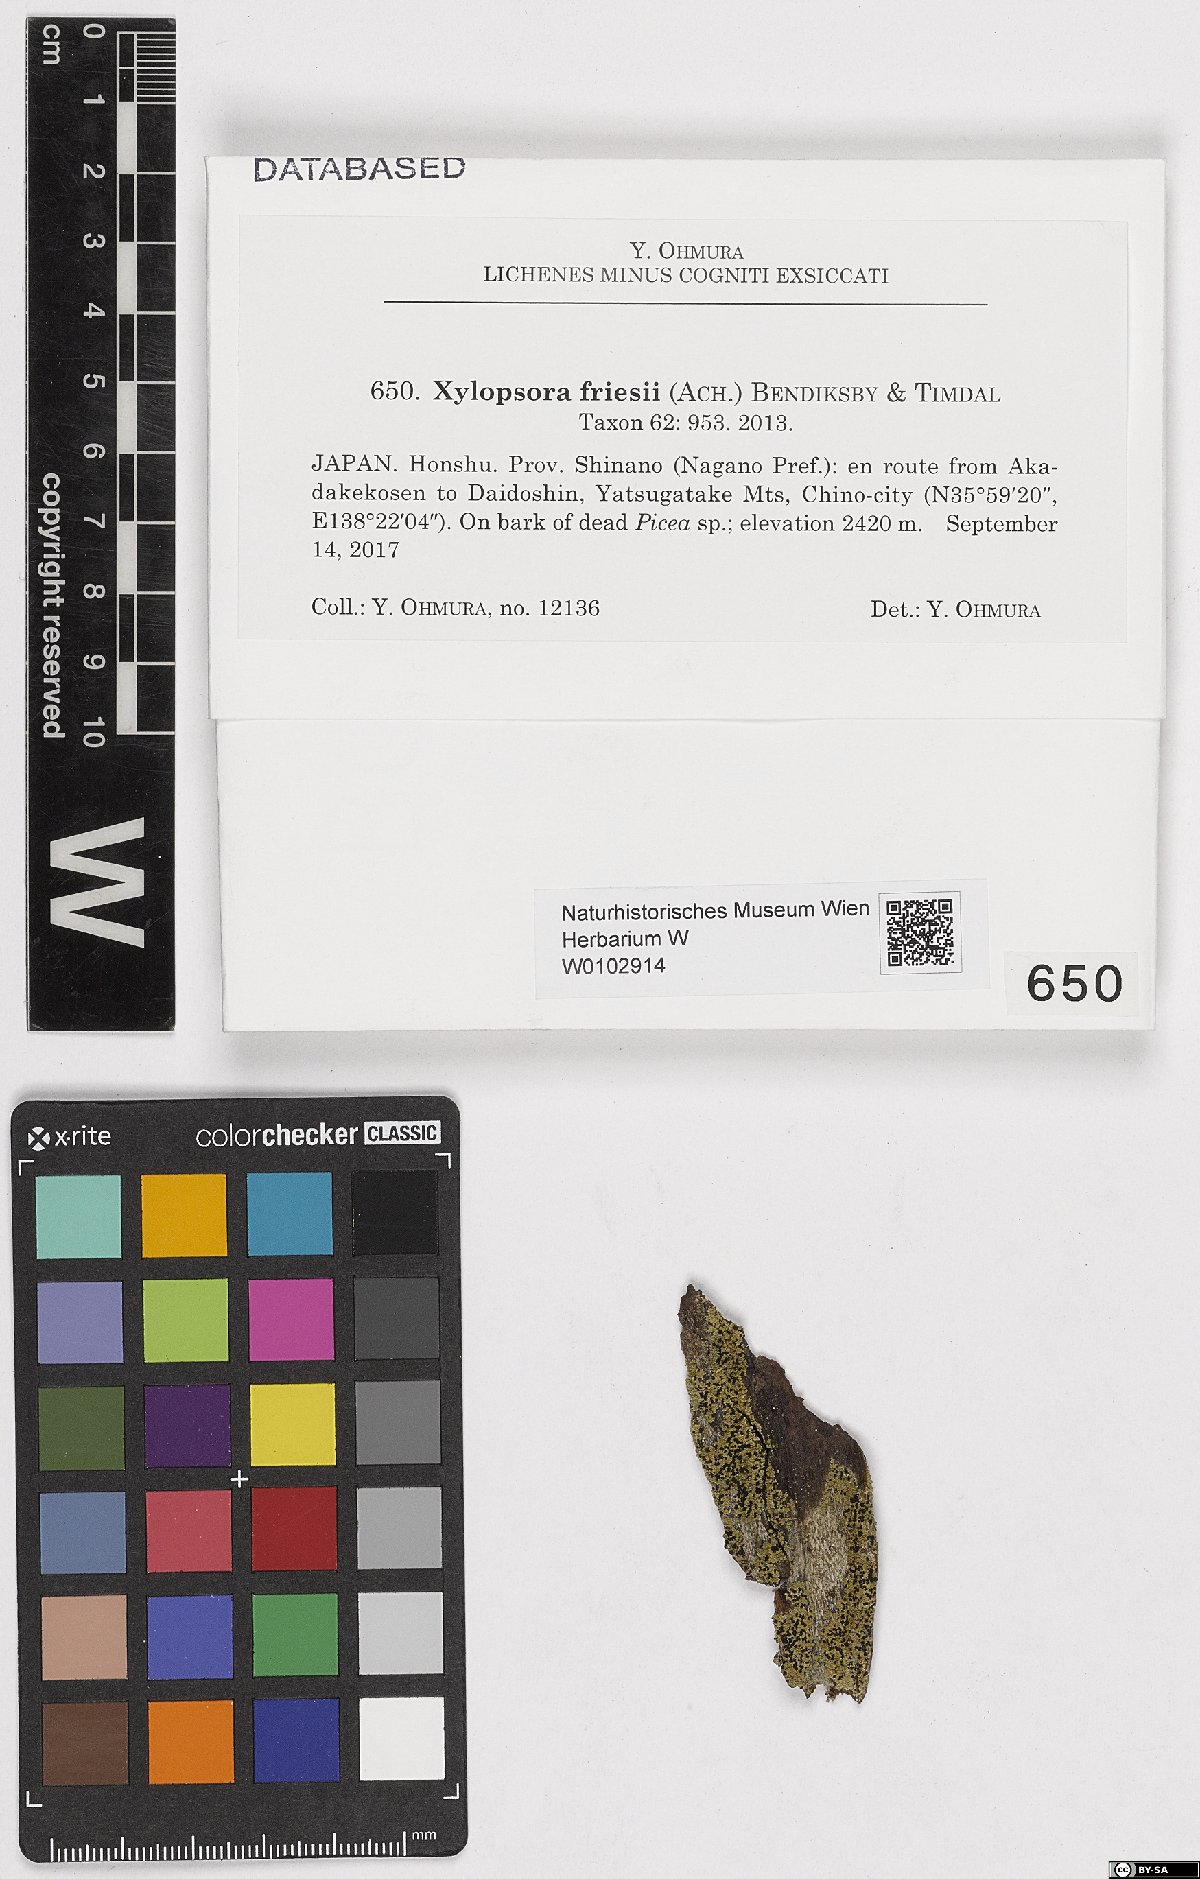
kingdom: Fungi
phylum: Ascomycota
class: Lecanoromycetes
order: Umbilicariales
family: Umbilicariaceae
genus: Xylopsora
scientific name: Xylopsora friesii
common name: Old-growth clam lichen
